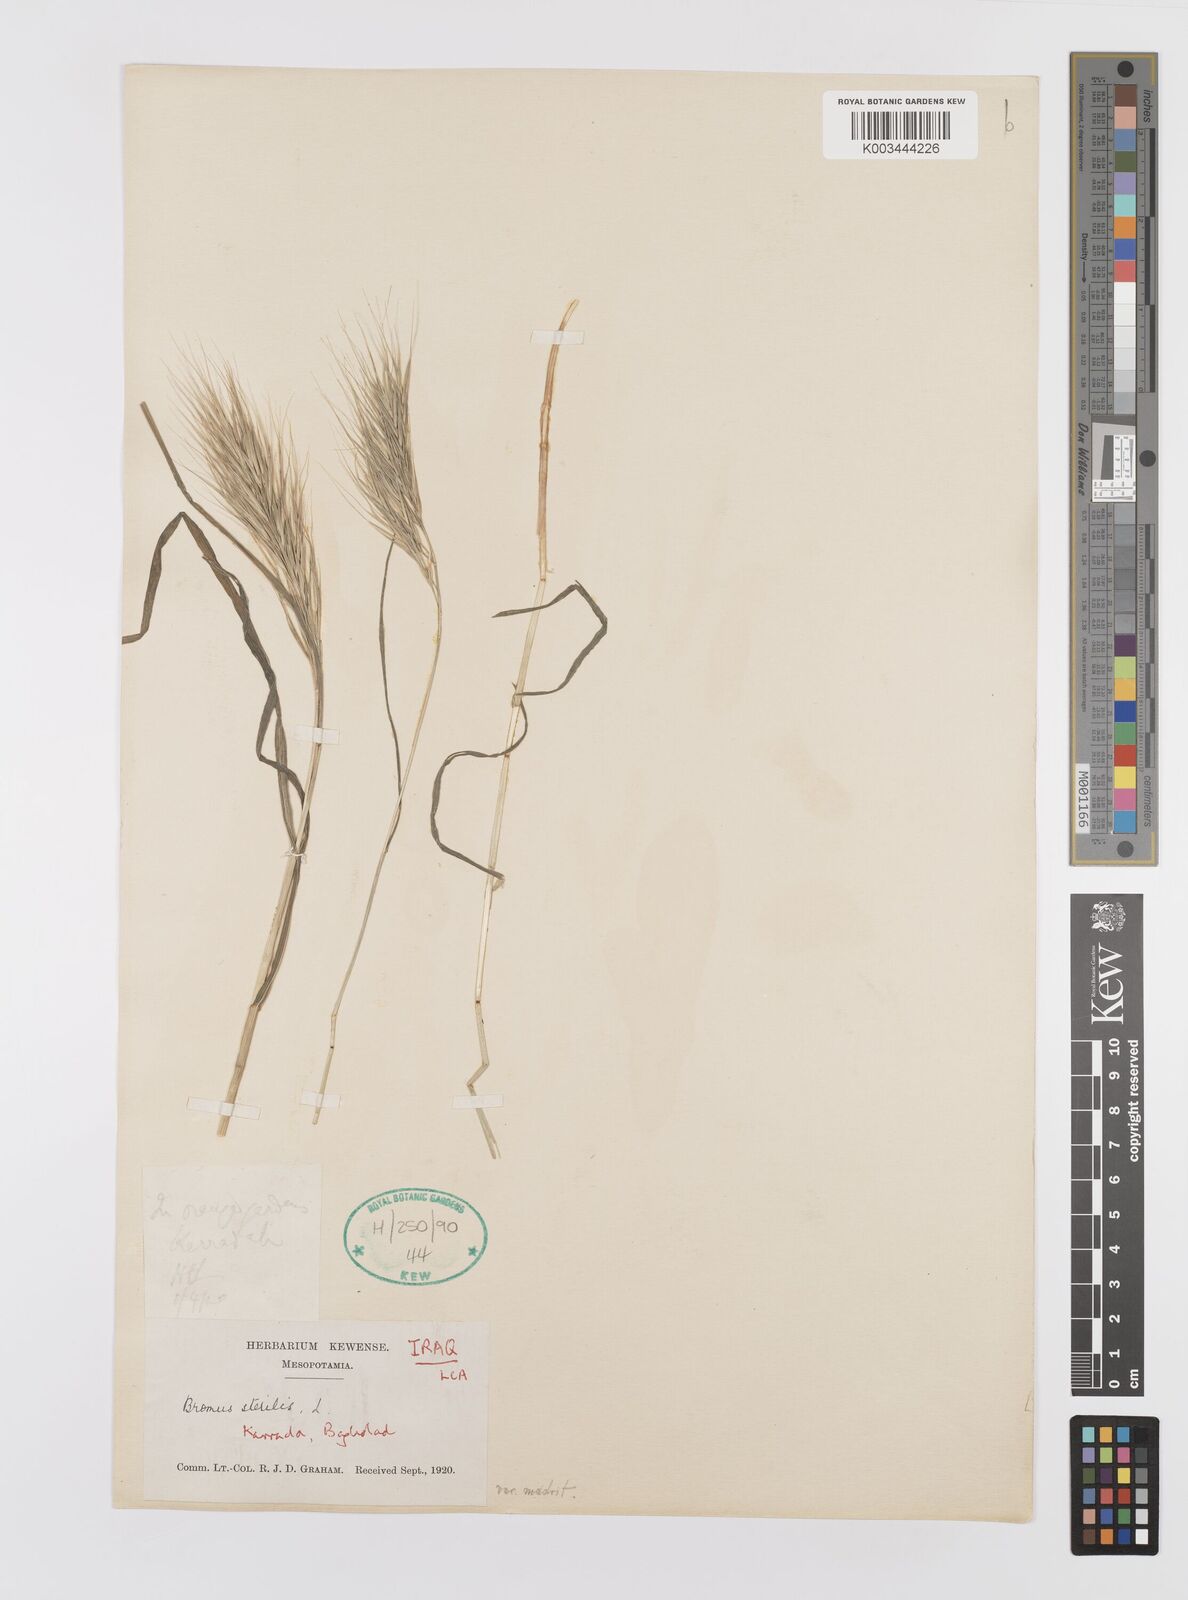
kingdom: Plantae
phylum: Tracheophyta
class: Liliopsida
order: Poales
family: Poaceae
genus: Bromus
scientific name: Bromus madritensis
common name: Compact brome
